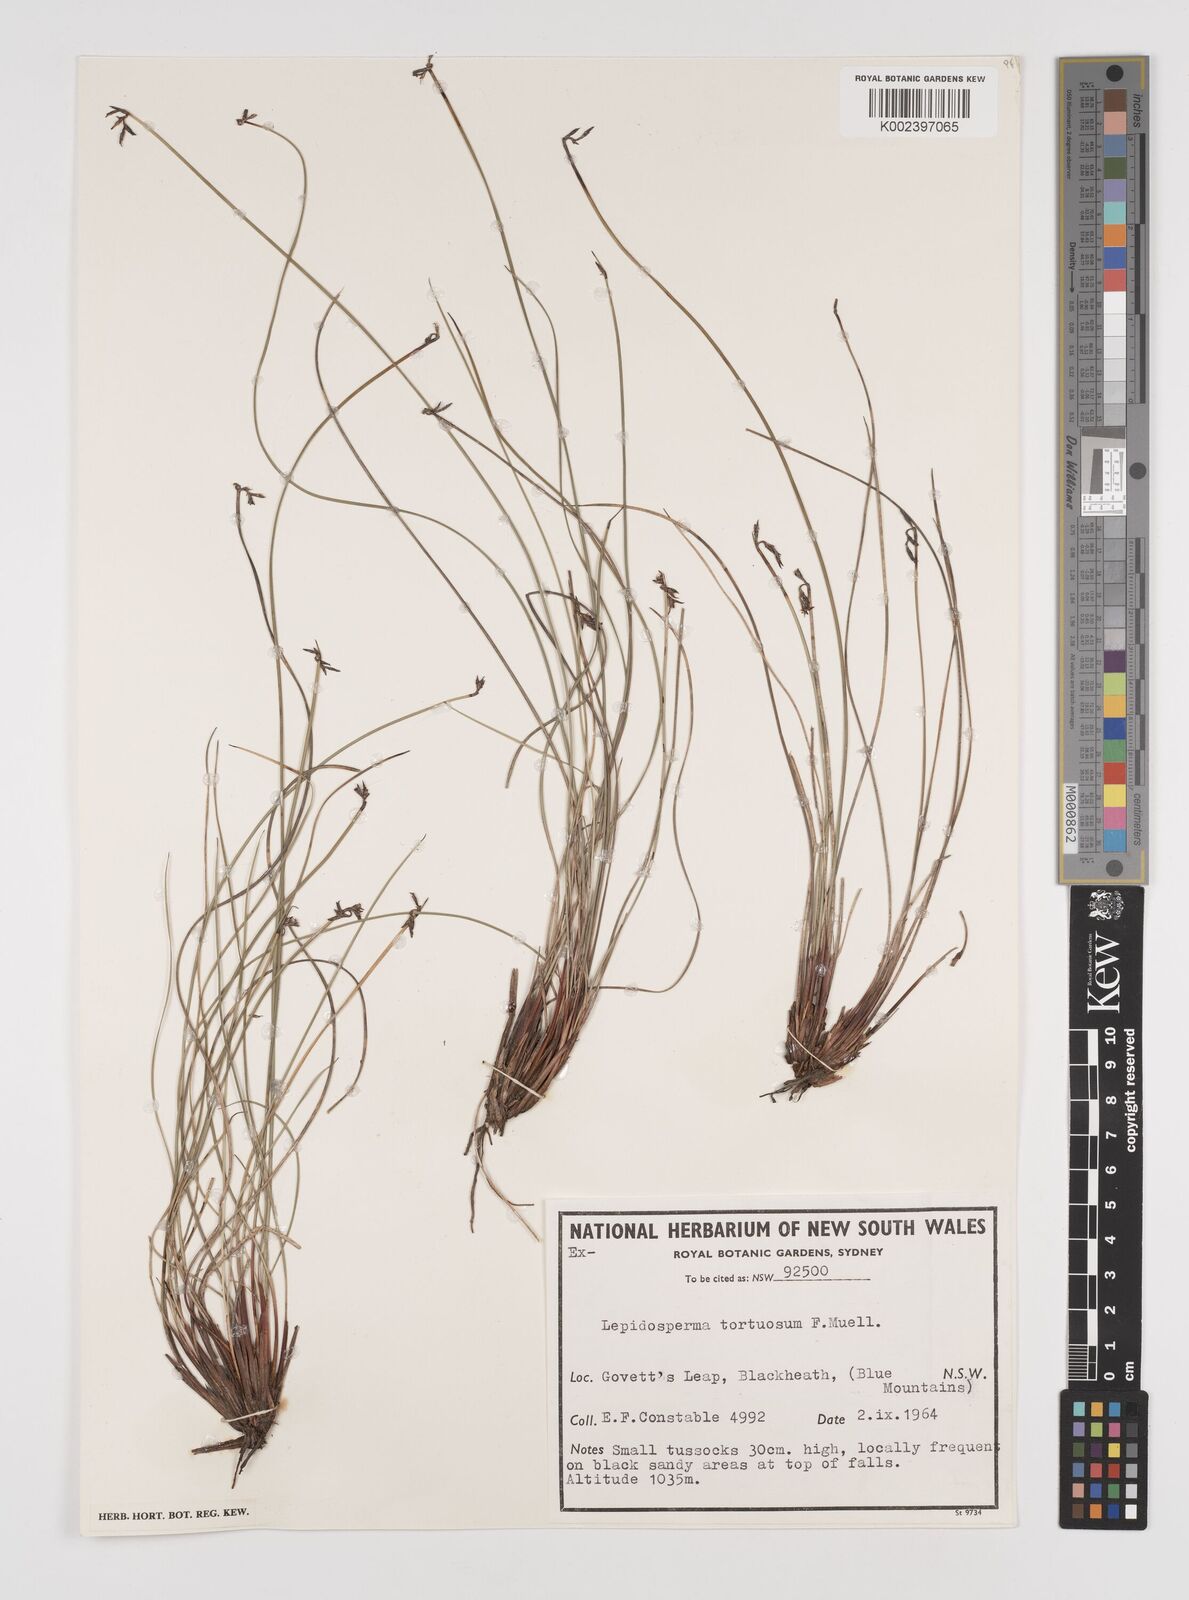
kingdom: Plantae
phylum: Tracheophyta
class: Liliopsida
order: Poales
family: Cyperaceae
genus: Lepidosperma
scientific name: Lepidosperma tortuosum
